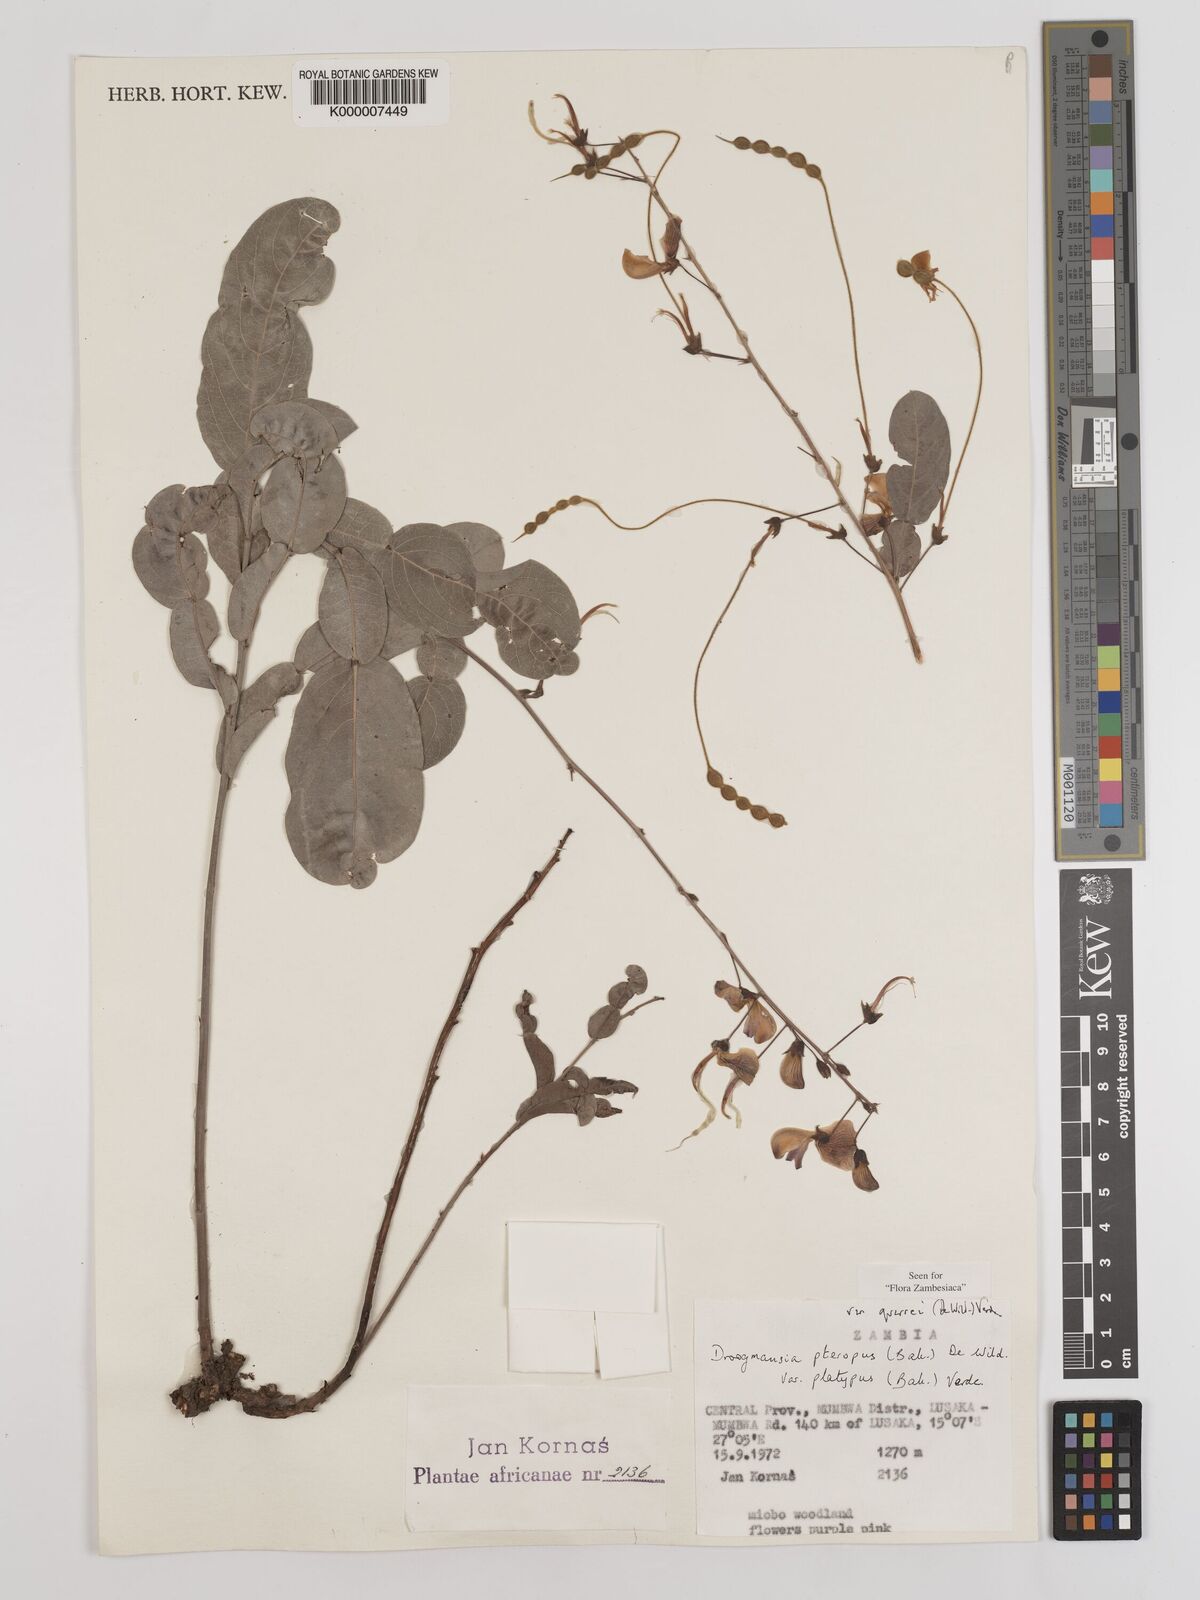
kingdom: Plantae
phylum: Tracheophyta
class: Magnoliopsida
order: Fabales
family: Fabaceae
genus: Droogmansia
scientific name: Droogmansia pteropus
